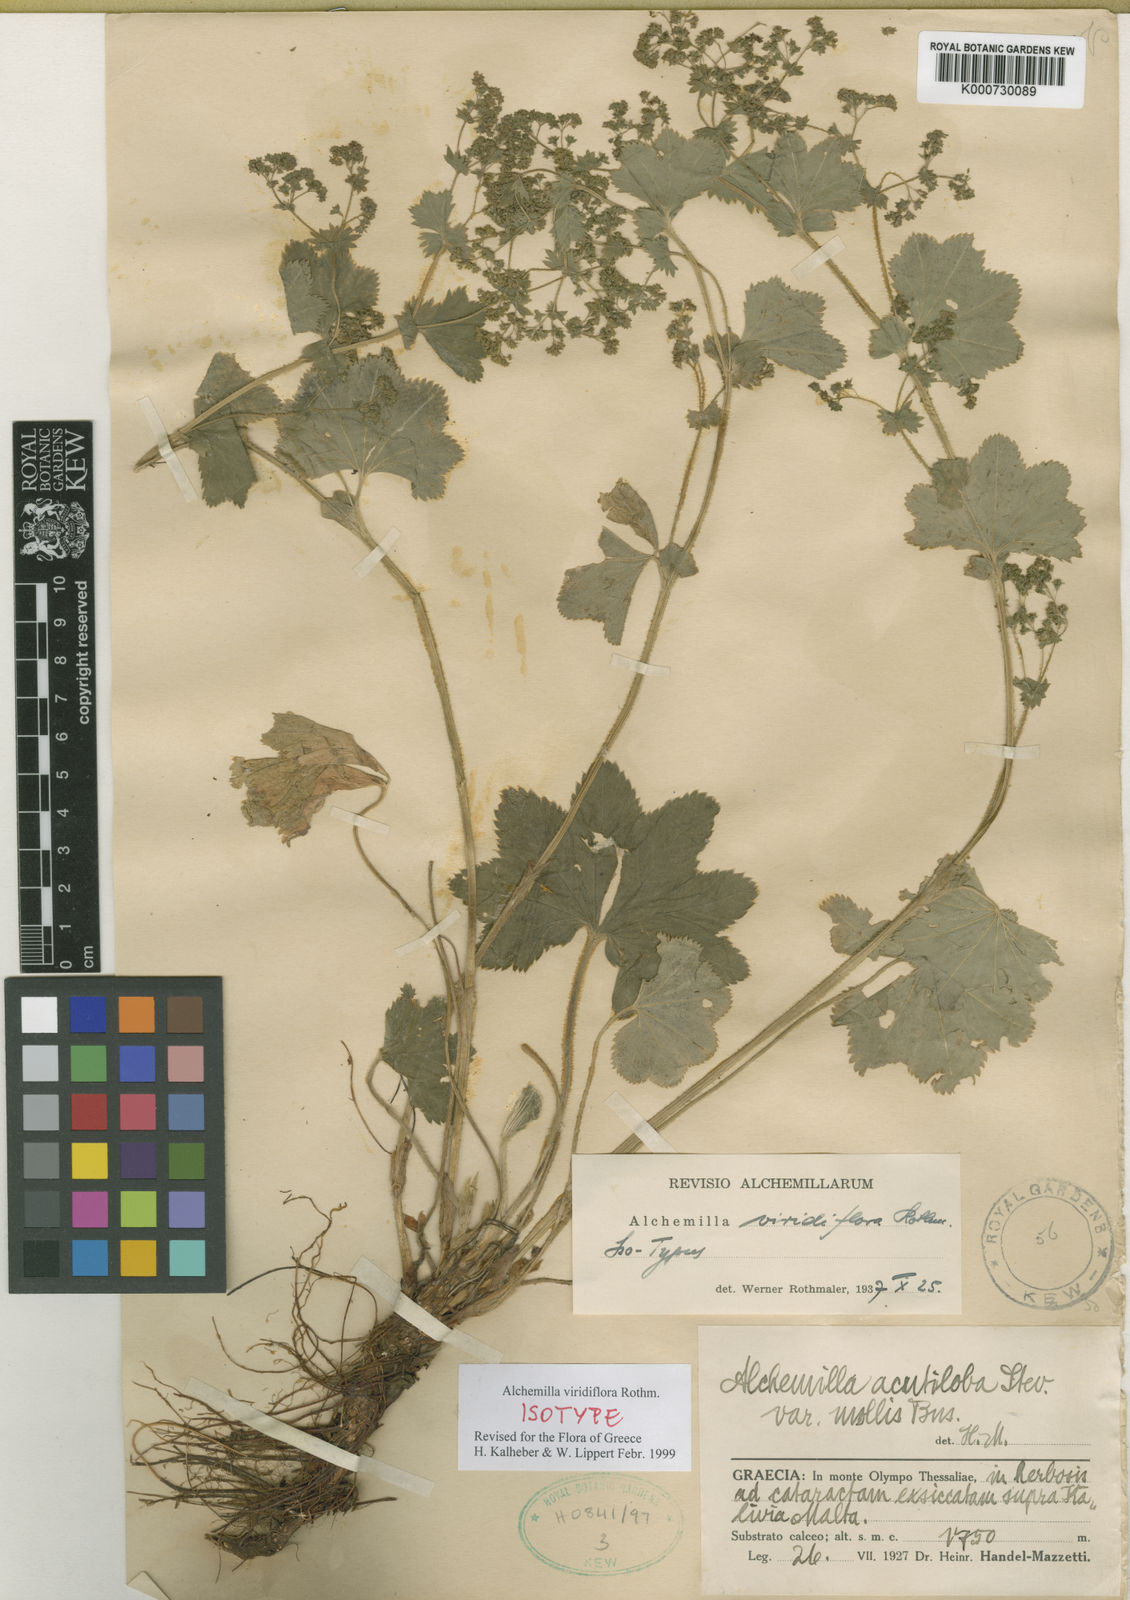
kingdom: Plantae
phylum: Tracheophyta
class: Magnoliopsida
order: Rosales
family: Rosaceae
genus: Alchemilla
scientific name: Alchemilla viridiflora
